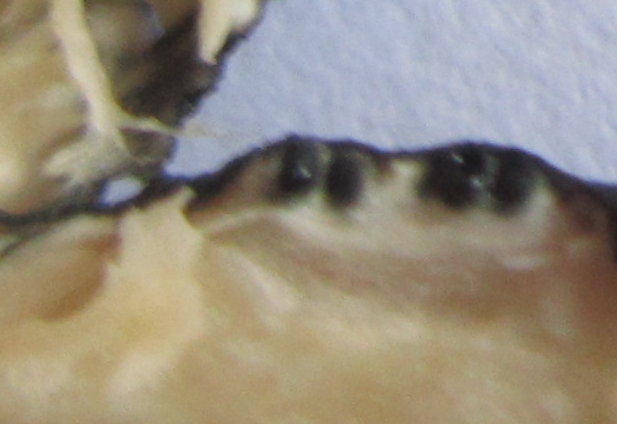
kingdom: Fungi
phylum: Ascomycota
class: Sordariomycetes
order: Xylariales
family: Xylariaceae
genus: Xylaria
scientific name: Xylaria polymorpha
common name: kølle-stødsvamp
